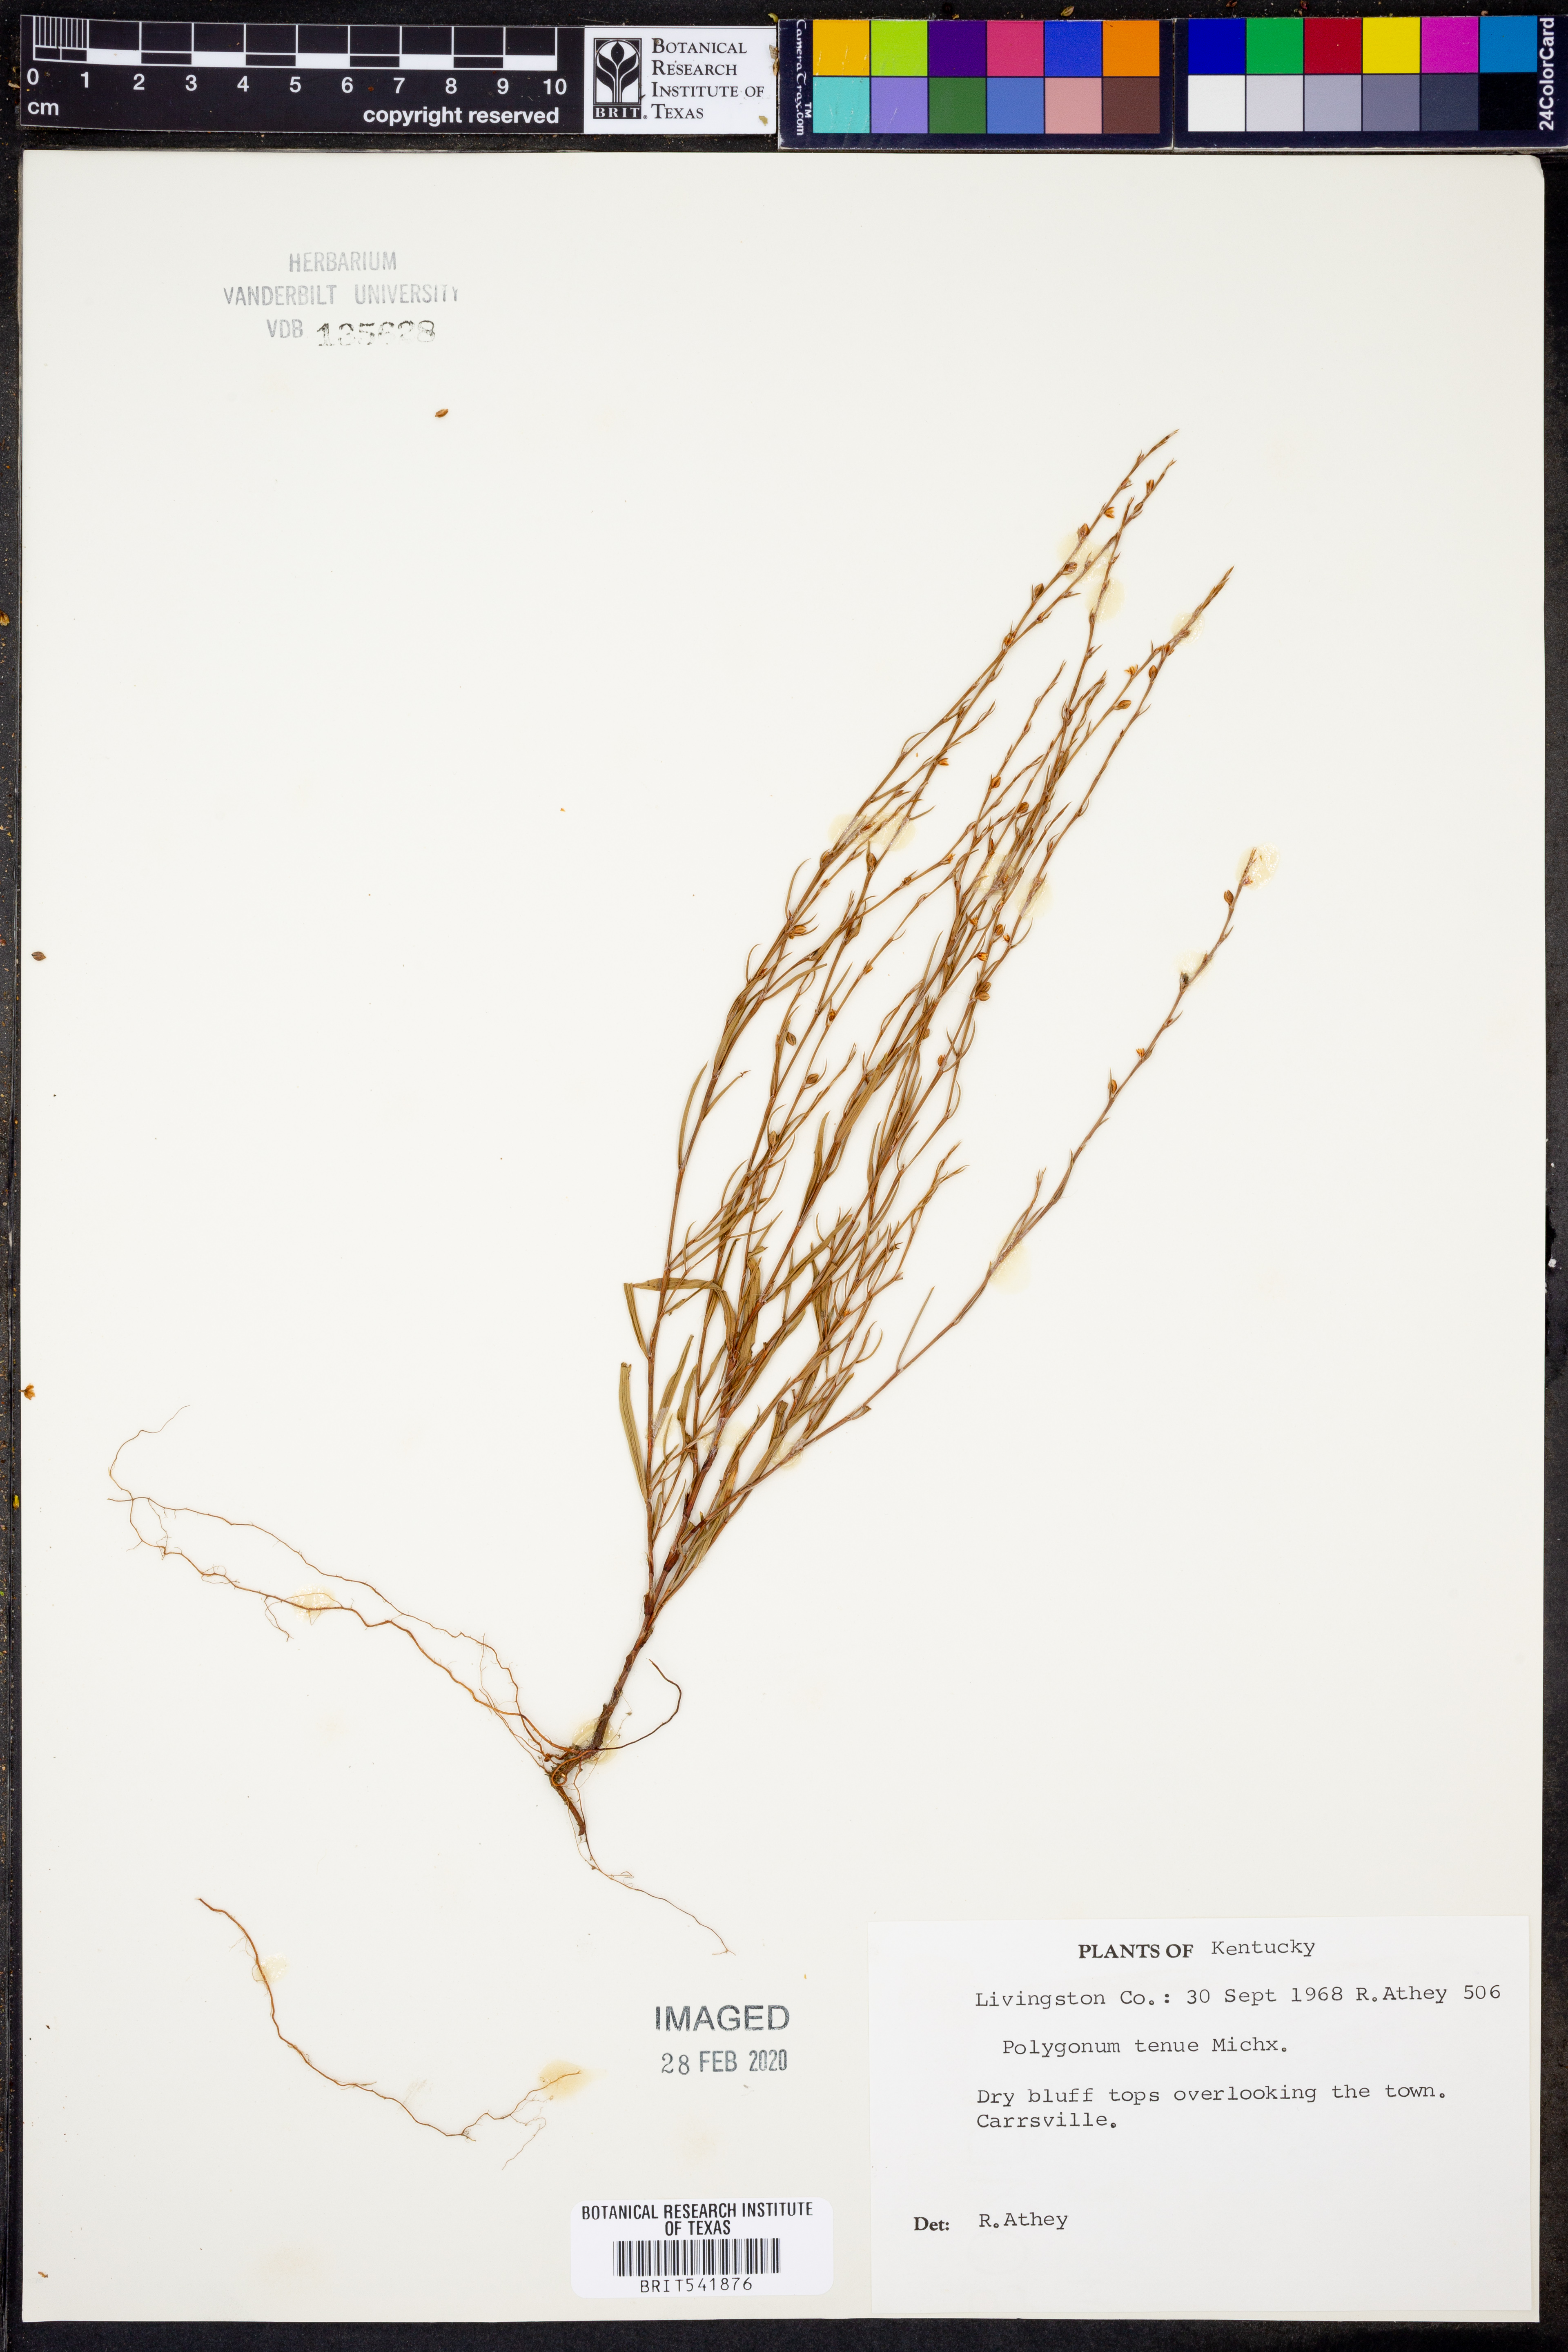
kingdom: Plantae
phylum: Tracheophyta
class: Magnoliopsida
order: Caryophyllales
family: Polygonaceae
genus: Polygonum
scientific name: Polygonum tenue
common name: Pleat-leaved knotweed
